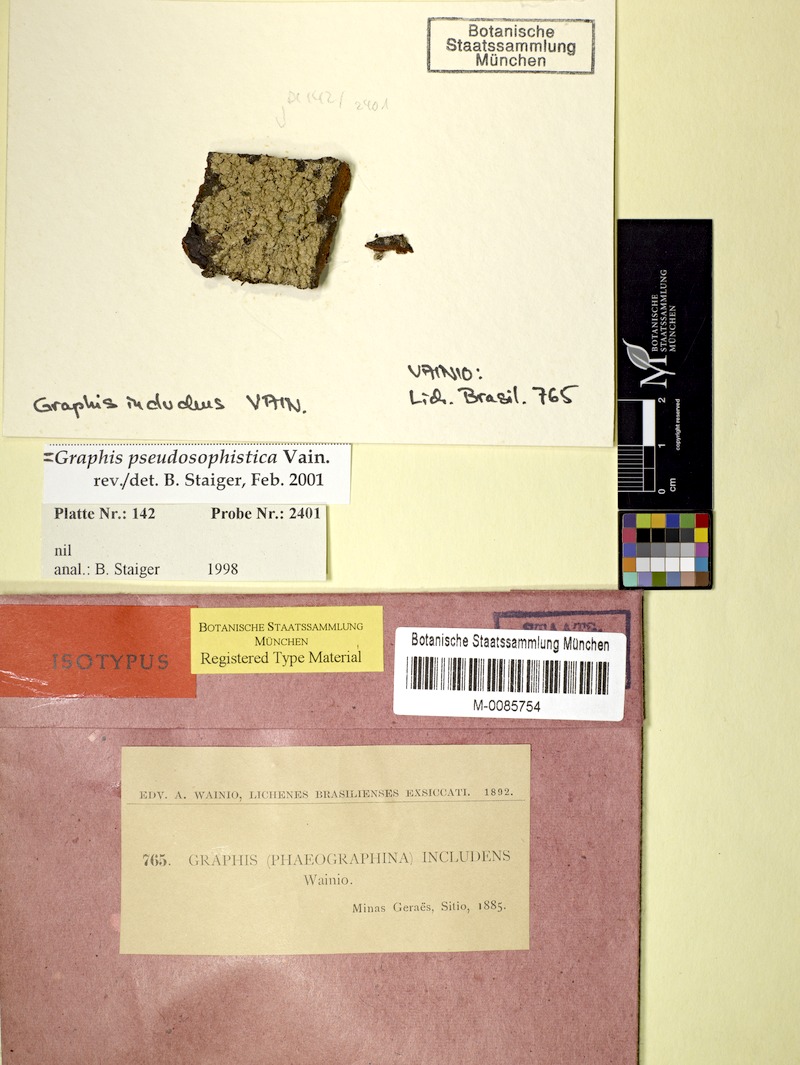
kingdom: Fungi
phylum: Ascomycota
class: Lecanoromycetes
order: Ostropales
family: Graphidaceae
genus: Graphis
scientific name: Graphis
